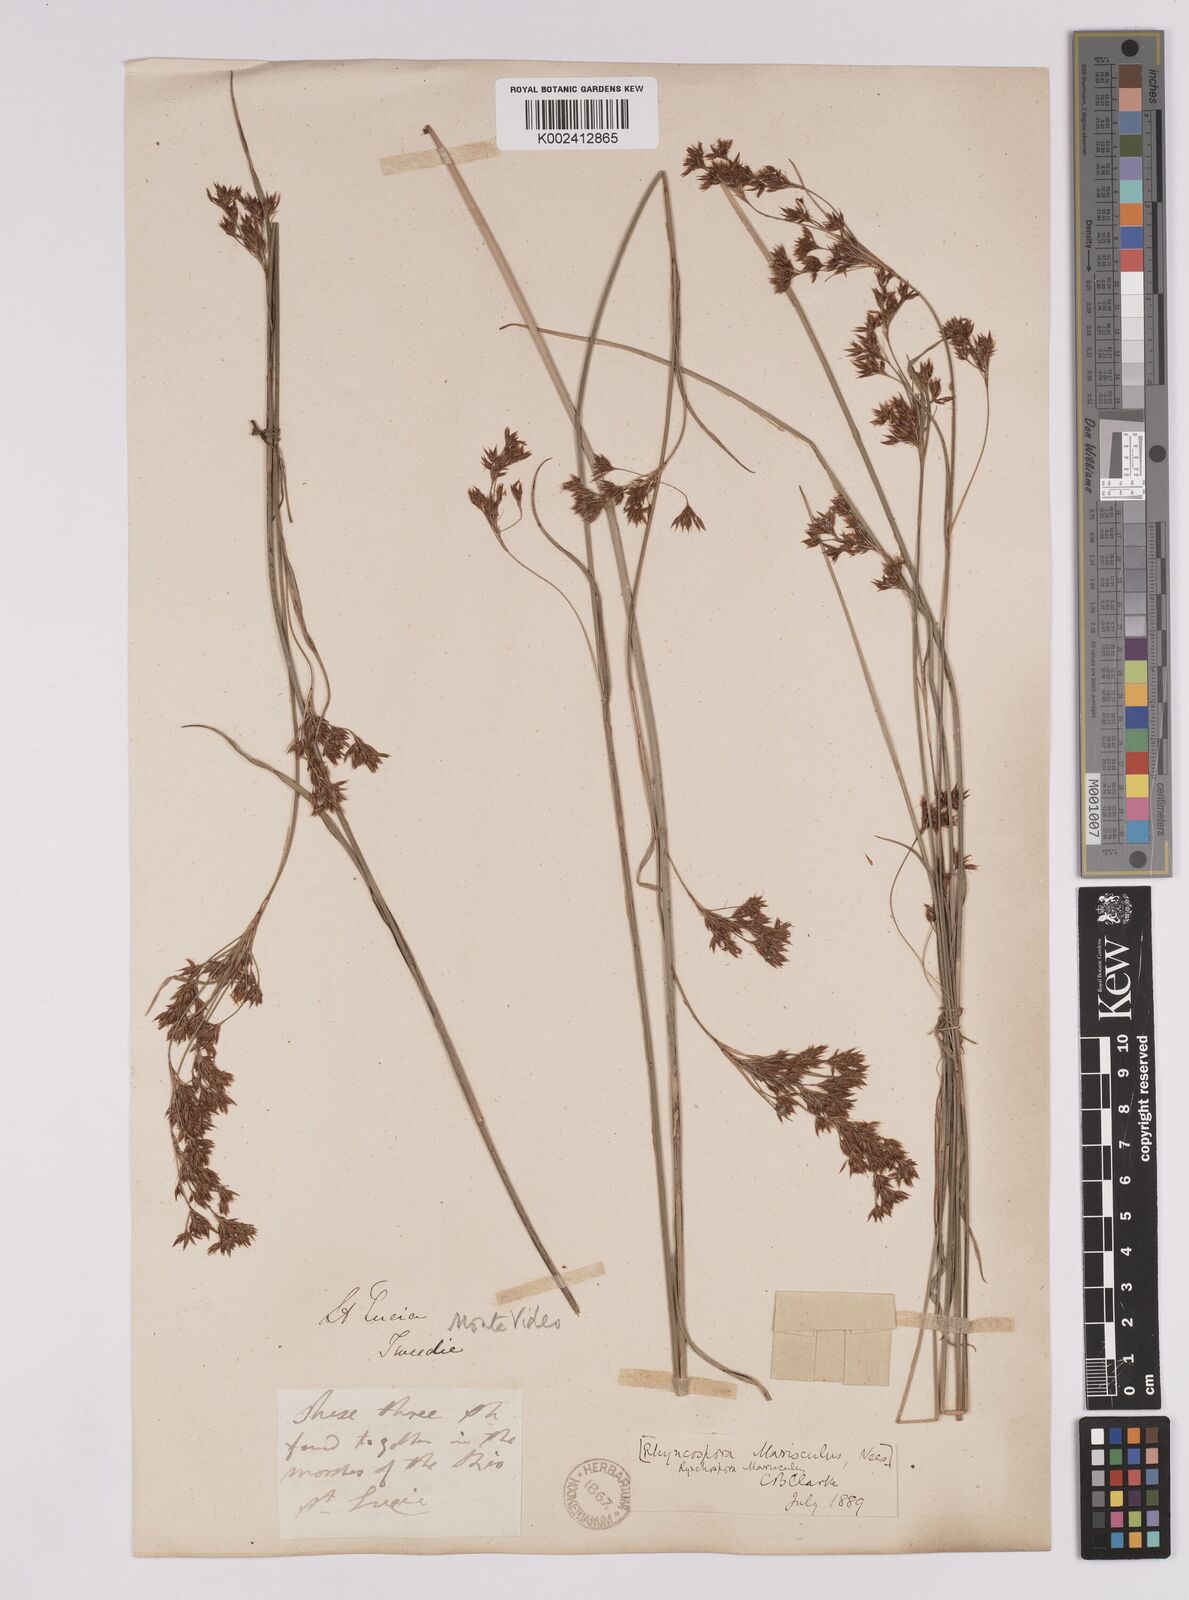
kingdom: Plantae
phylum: Tracheophyta
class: Liliopsida
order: Poales
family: Cyperaceae
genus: Rhynchospora
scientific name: Rhynchospora marisculus
